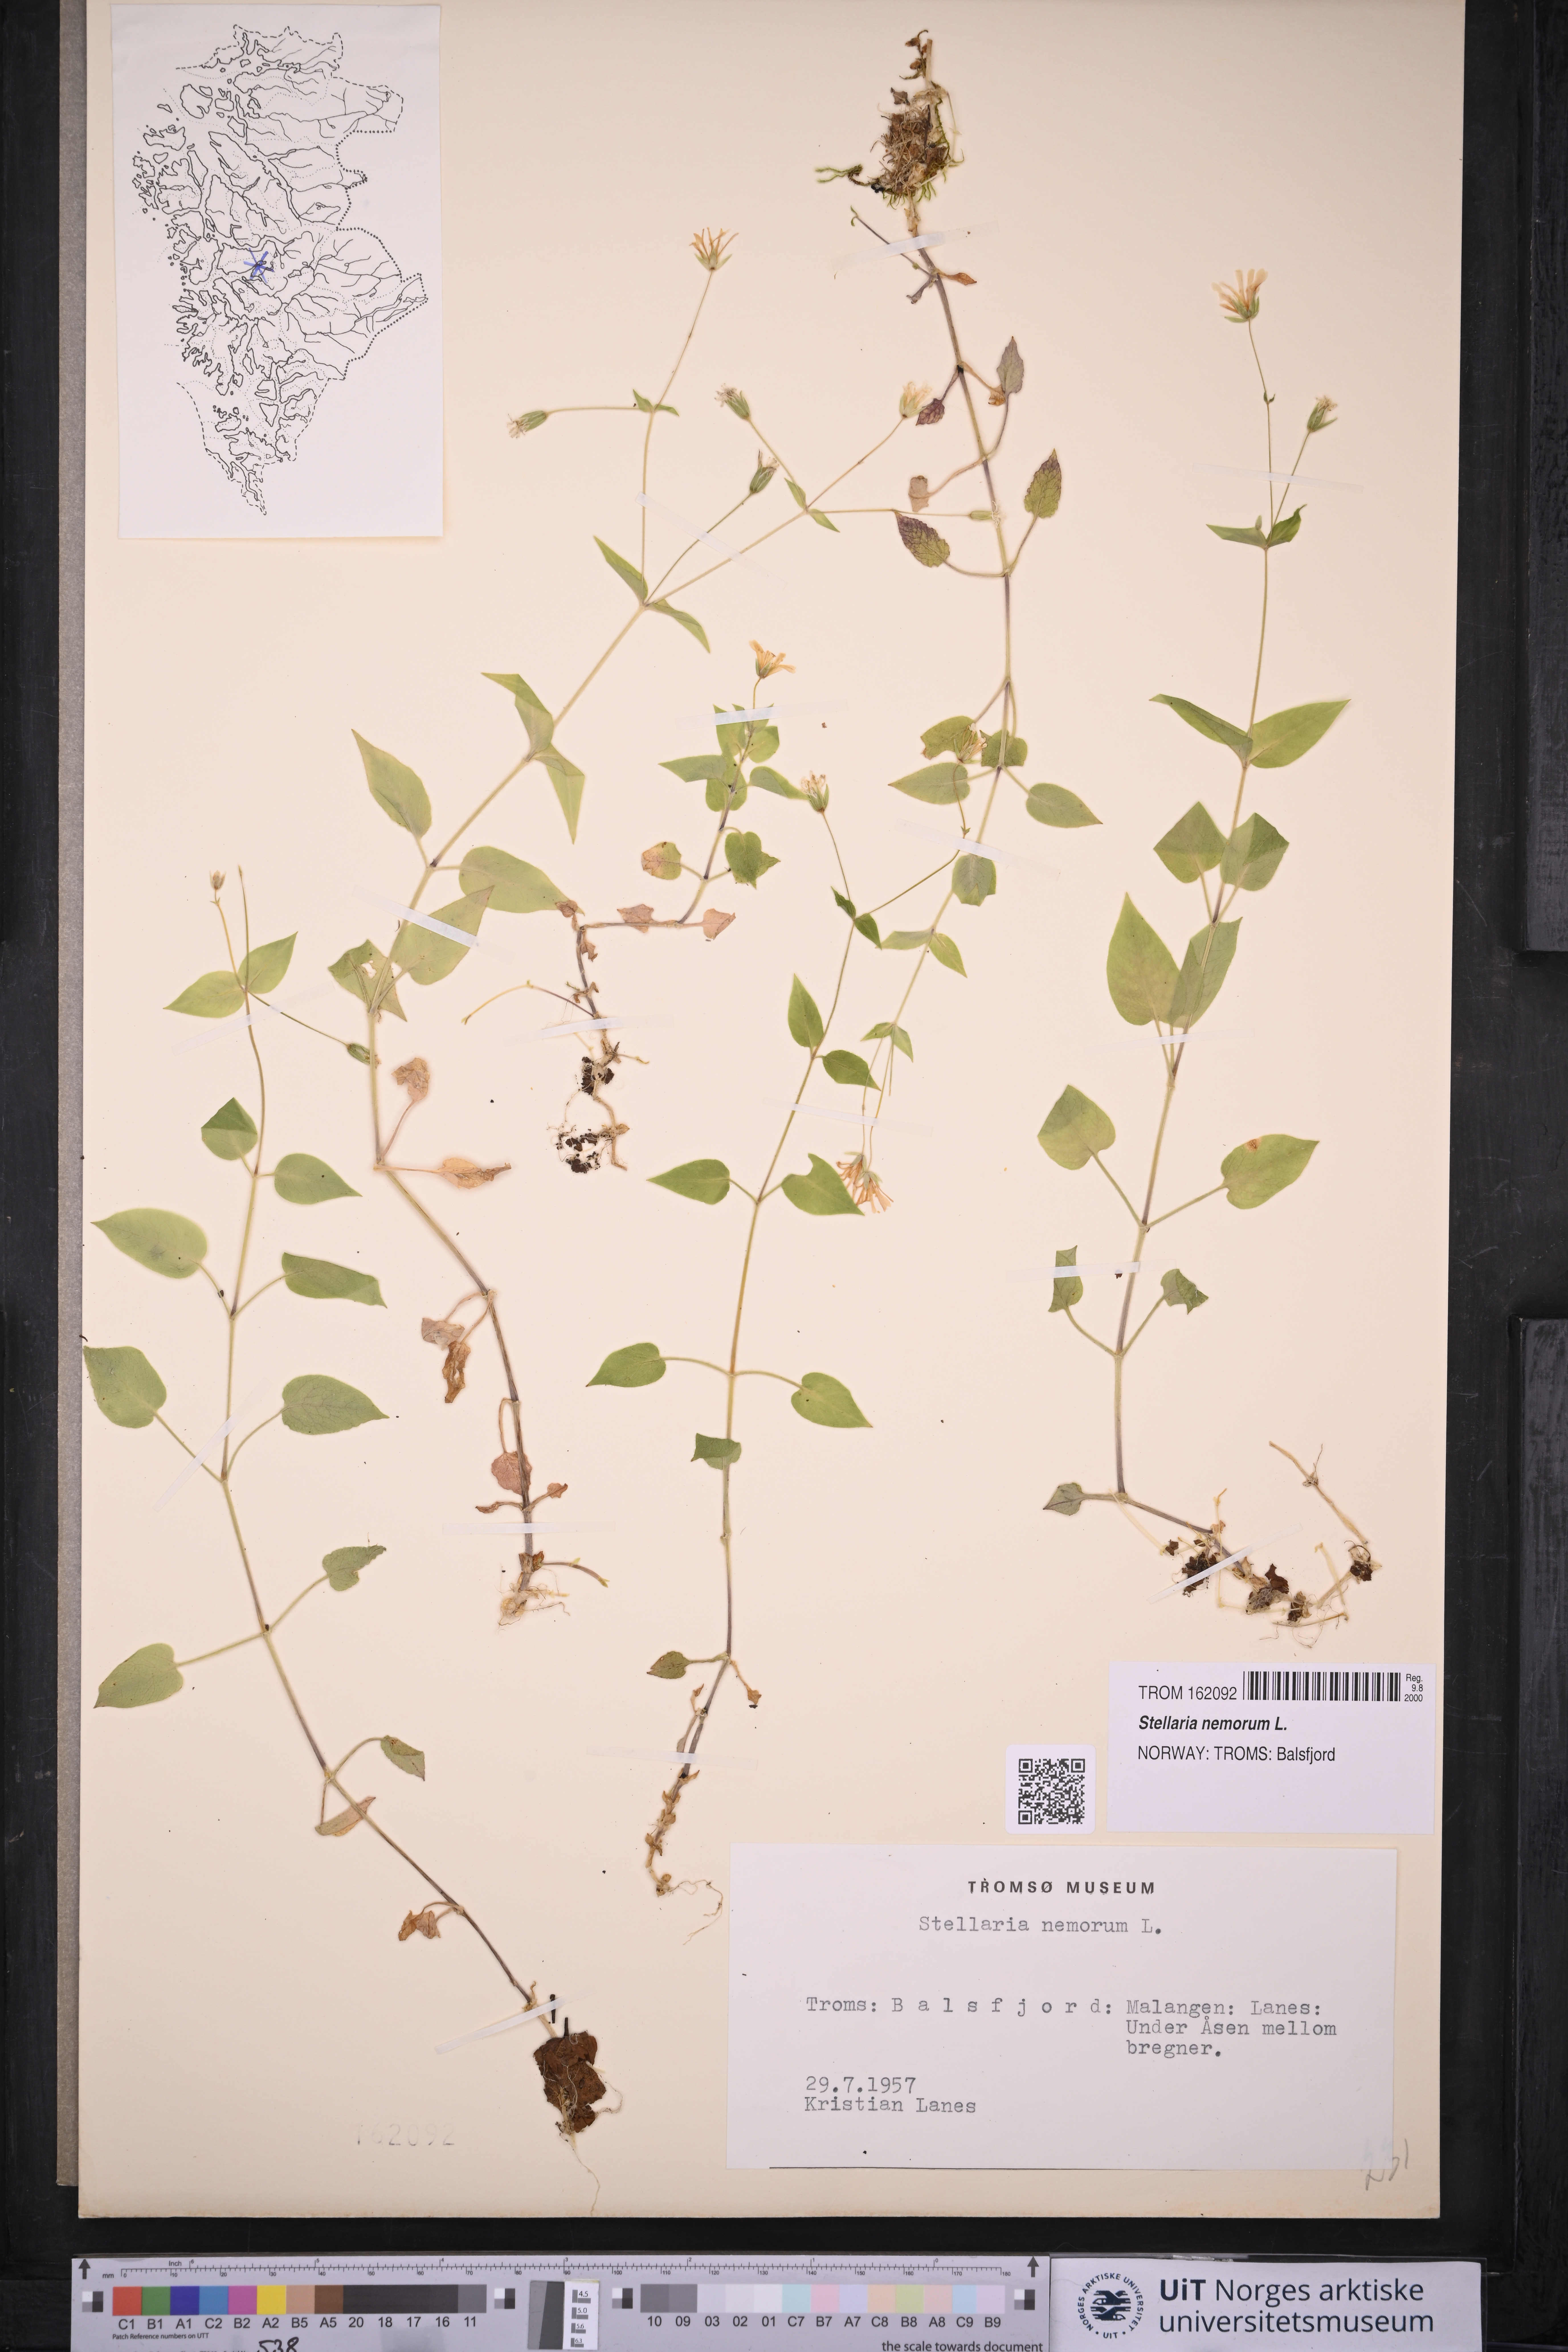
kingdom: Plantae
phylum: Tracheophyta
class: Magnoliopsida
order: Caryophyllales
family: Caryophyllaceae
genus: Stellaria
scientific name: Stellaria nemorum
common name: Wood stitchwort
